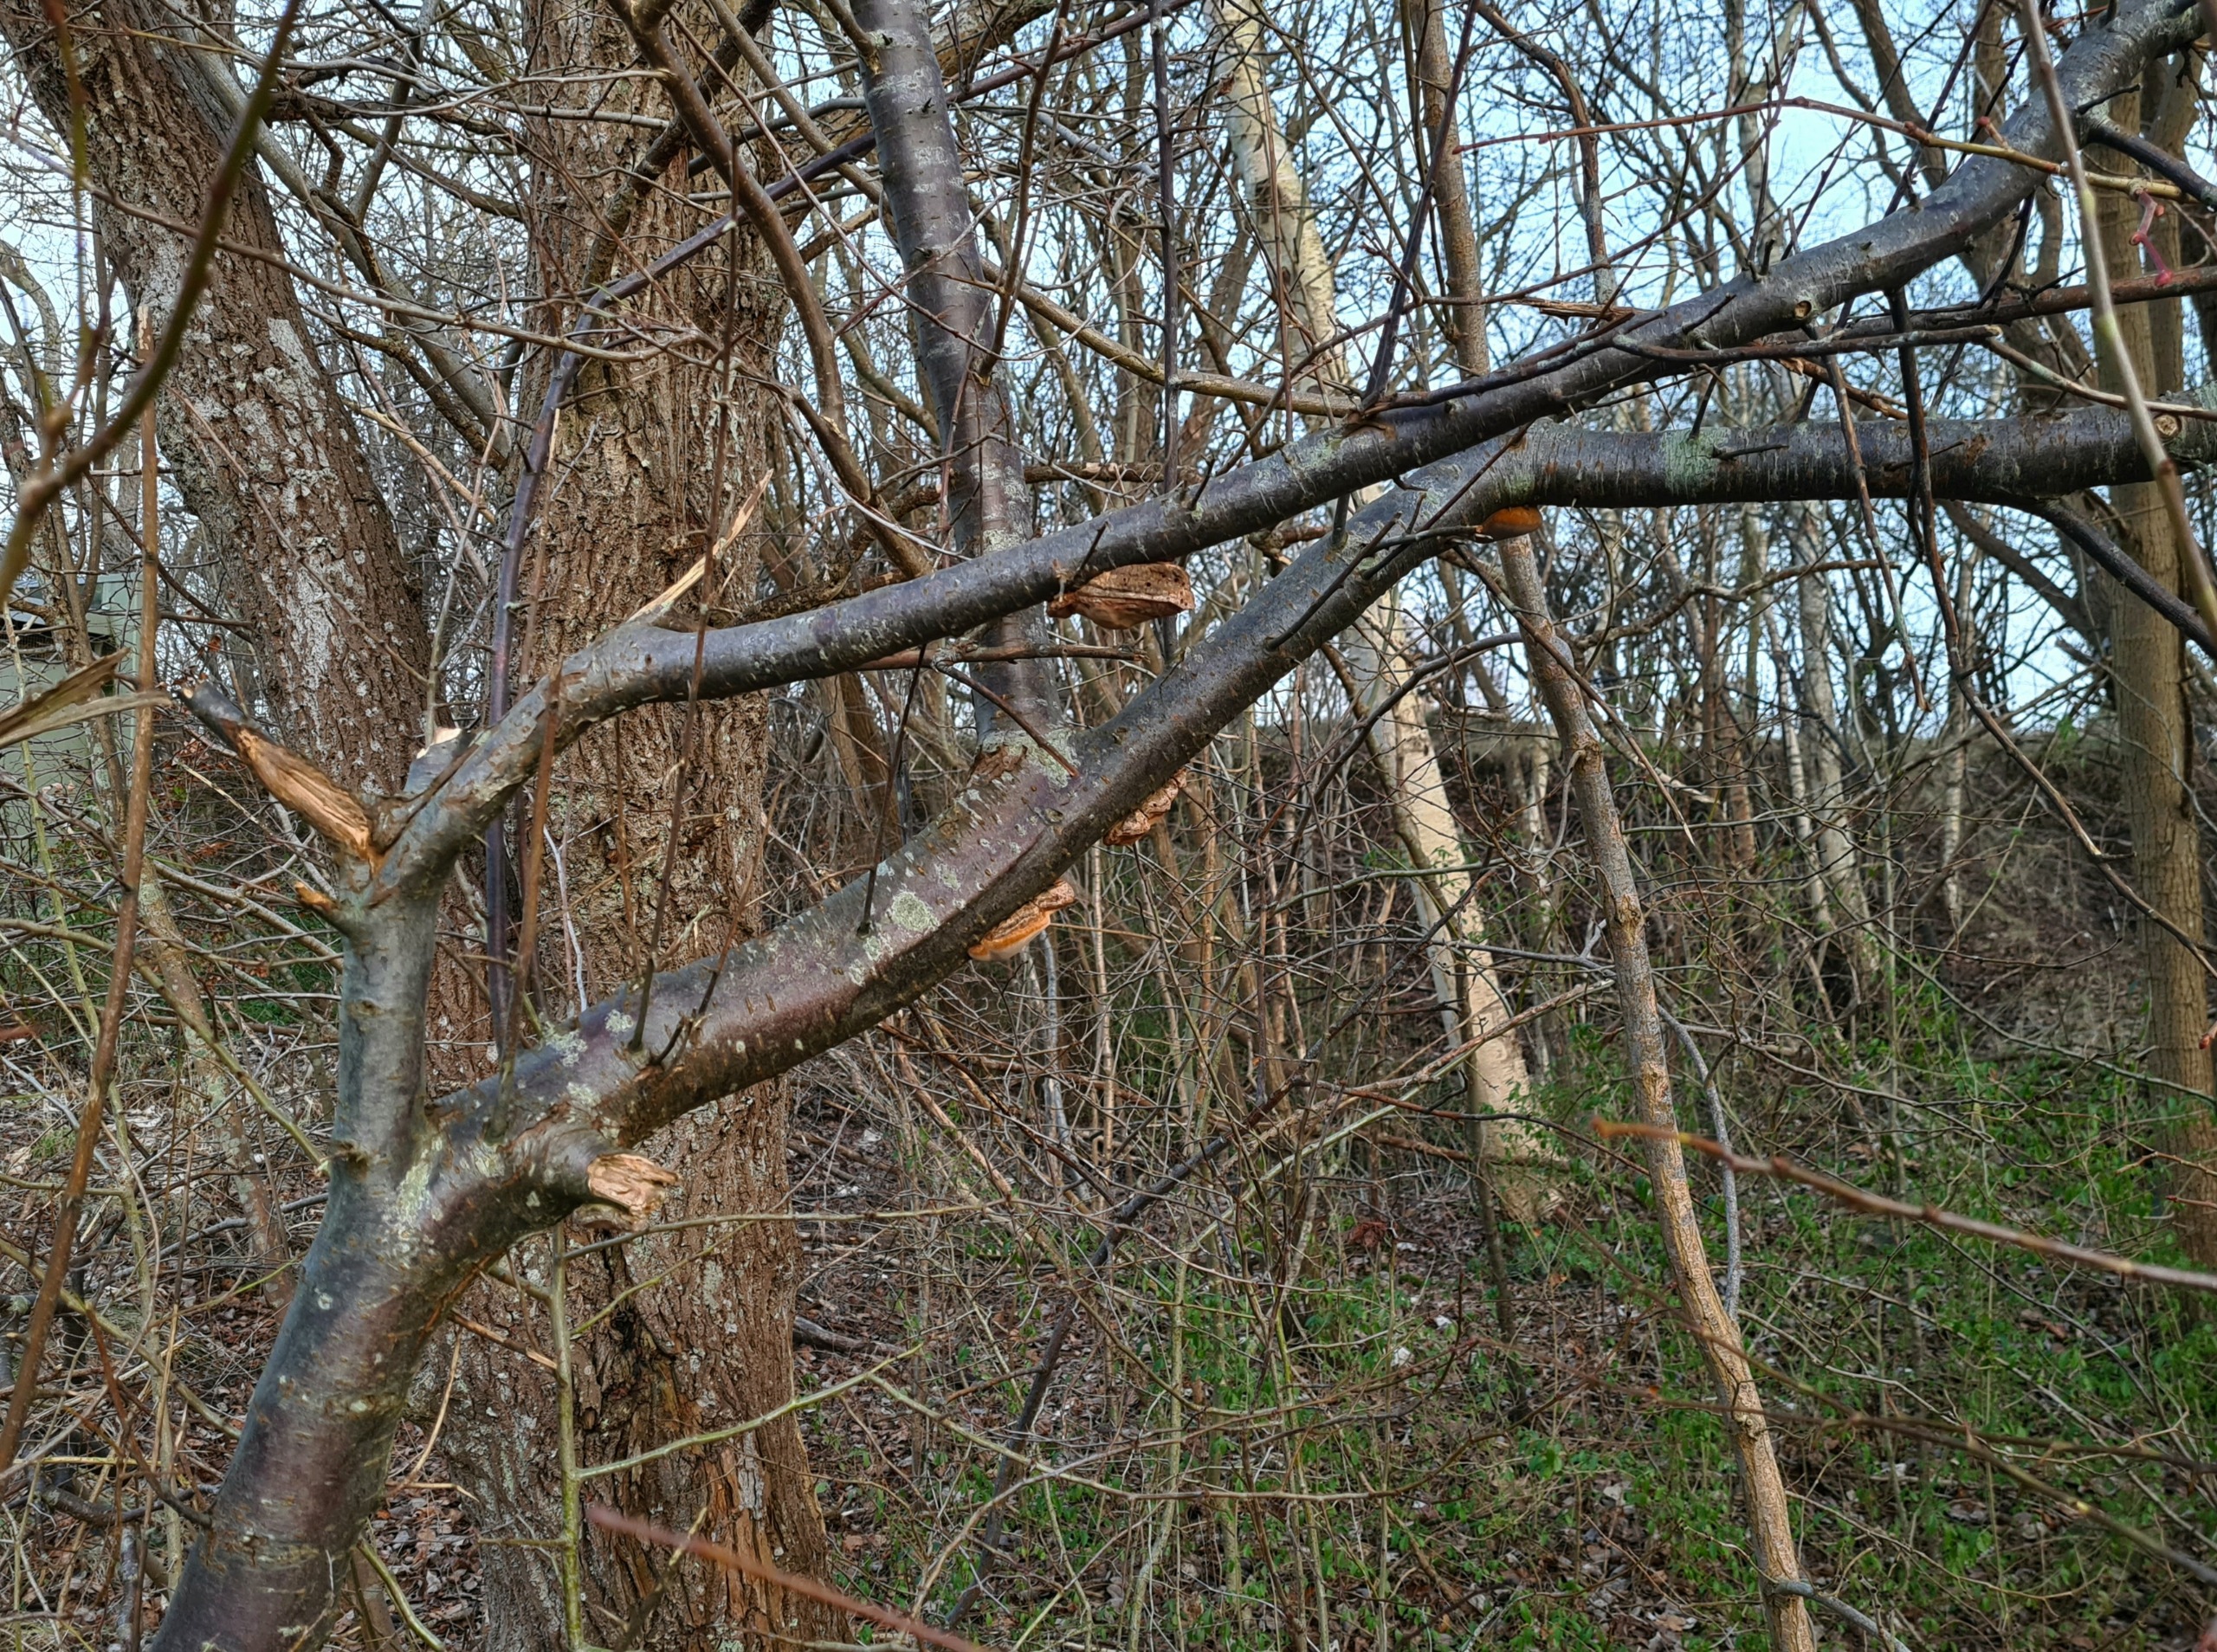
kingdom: Fungi
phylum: Basidiomycota
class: Agaricomycetes
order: Hymenochaetales
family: Hymenochaetaceae
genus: Phellinus
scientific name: Phellinus pomaceus
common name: Blomme-ildporesvamp
